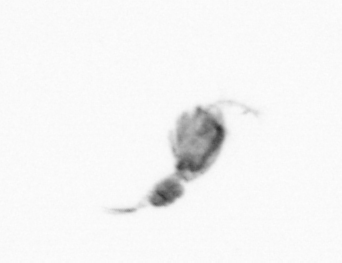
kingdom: Animalia
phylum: Arthropoda
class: Copepoda
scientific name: Copepoda
